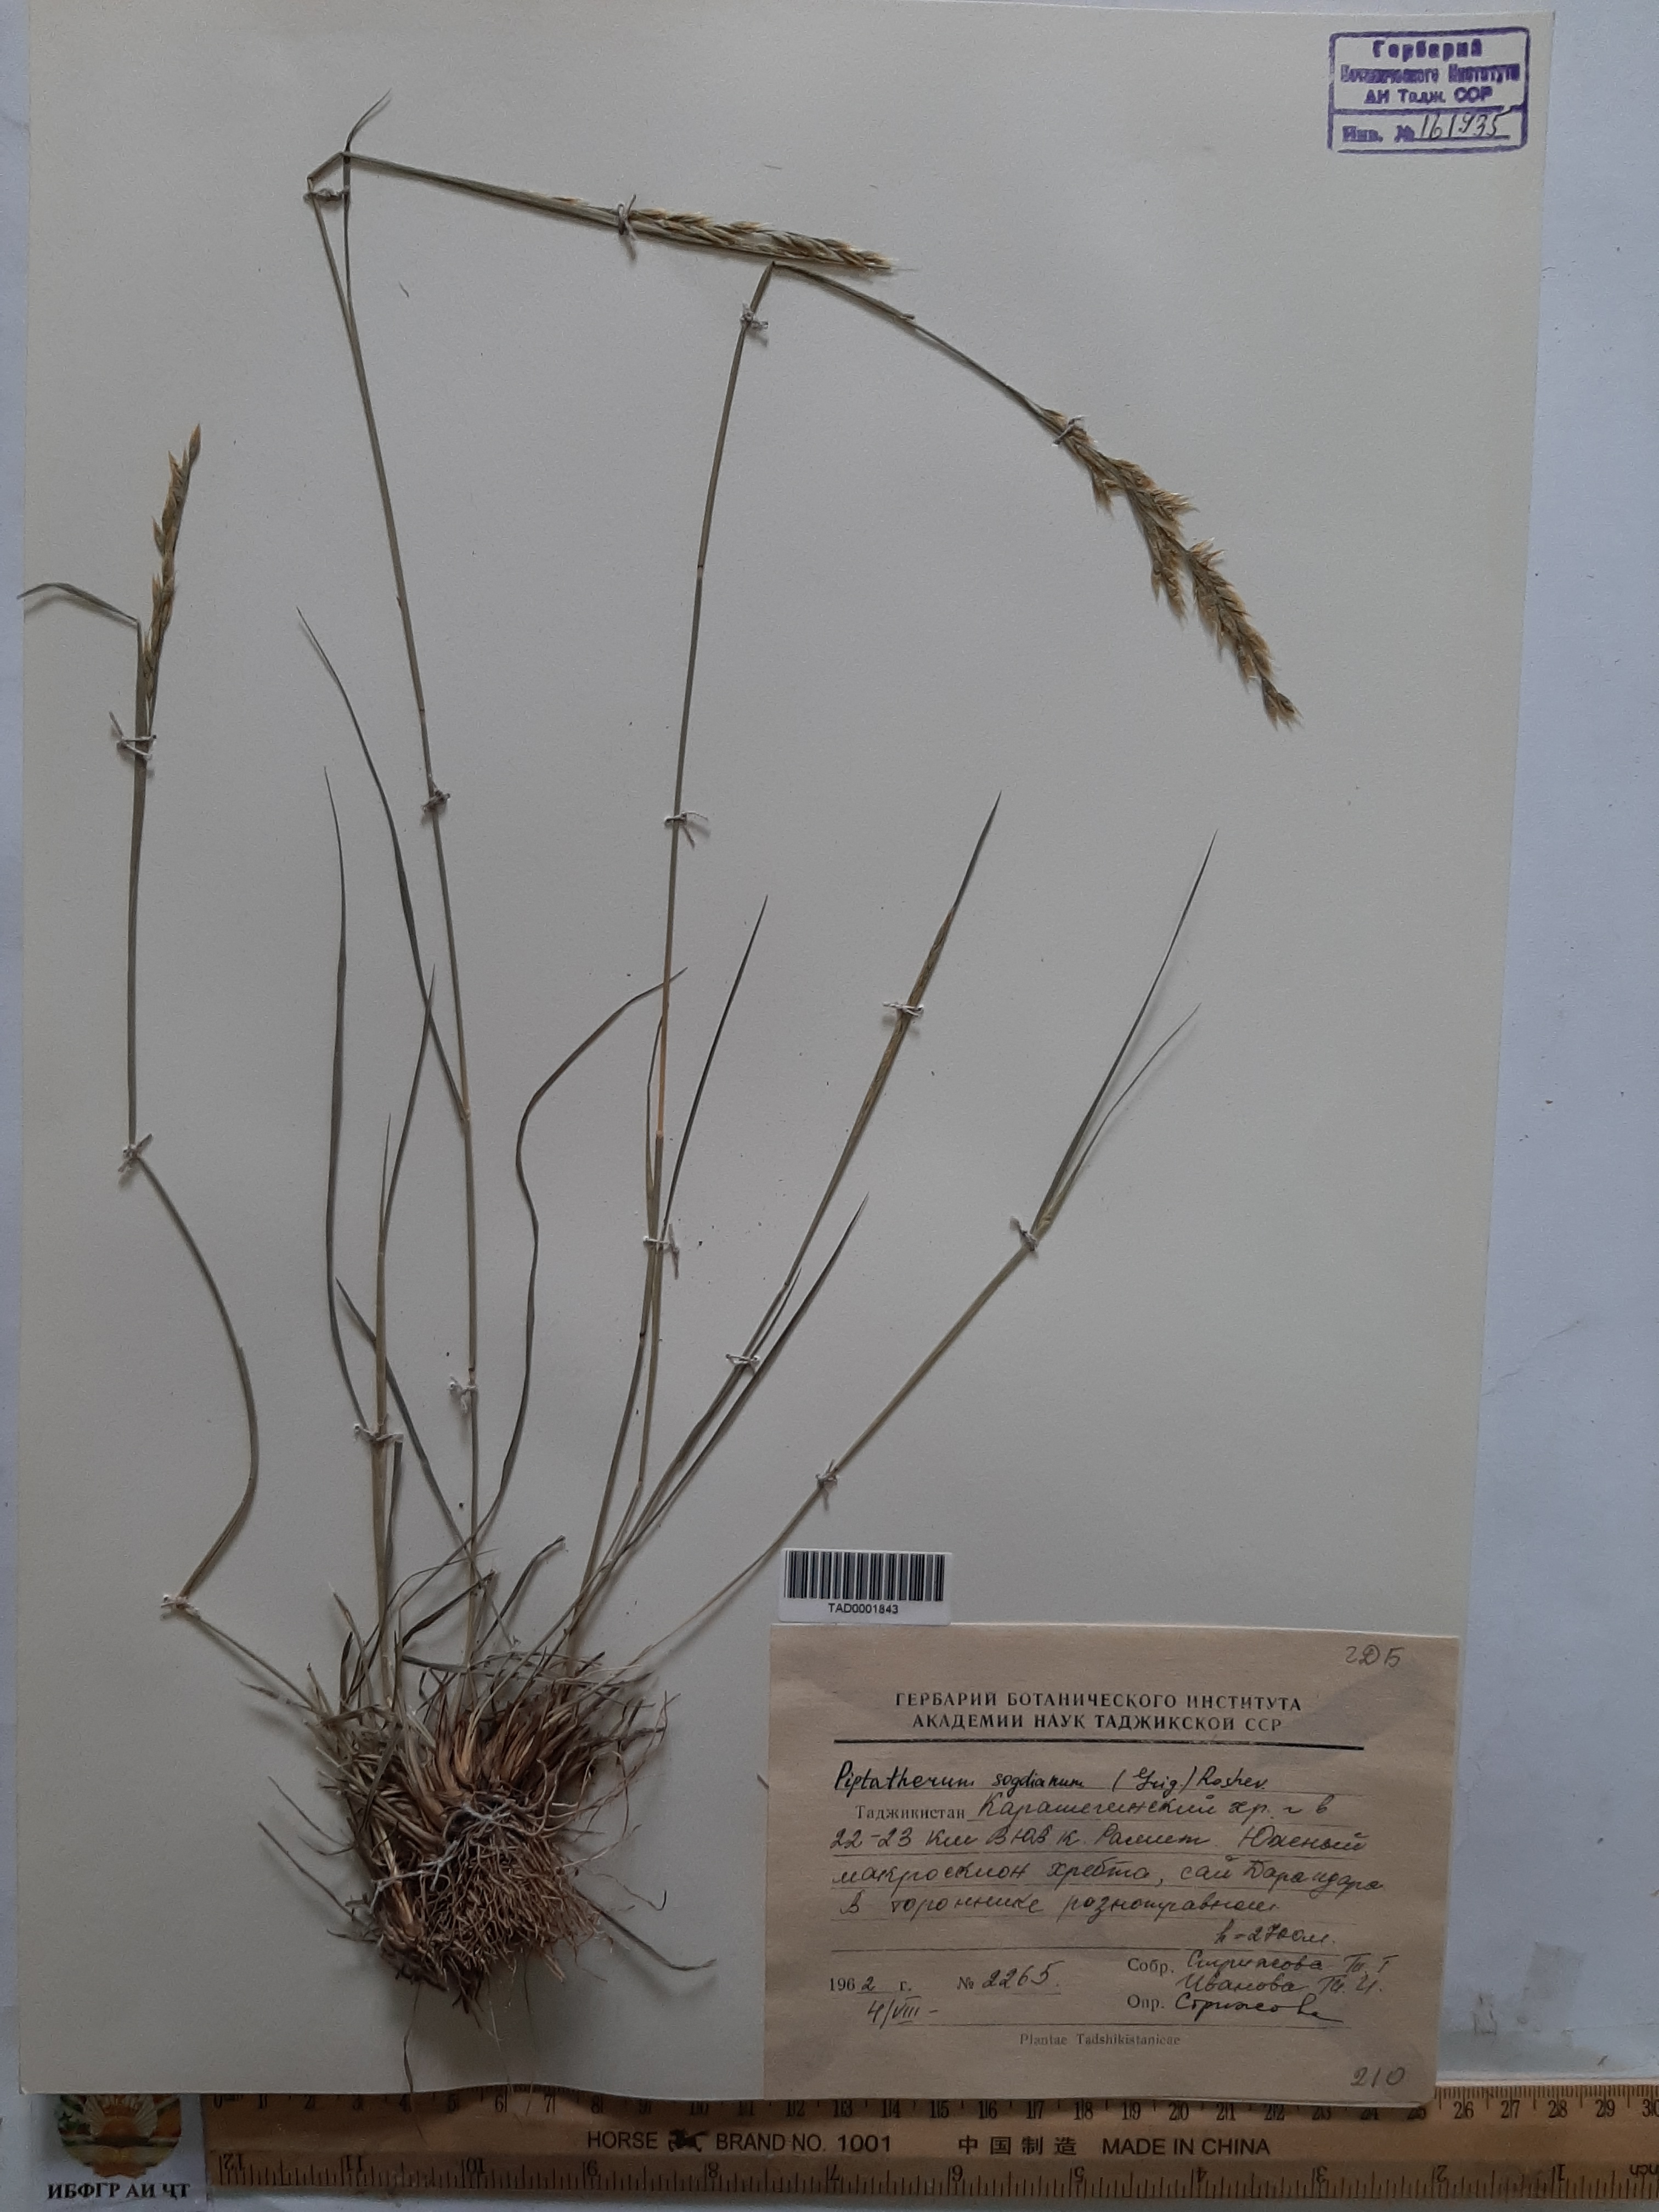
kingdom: Plantae
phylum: Tracheophyta
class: Liliopsida
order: Poales
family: Poaceae
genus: Piptatherum
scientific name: Piptatherum sogdianum
